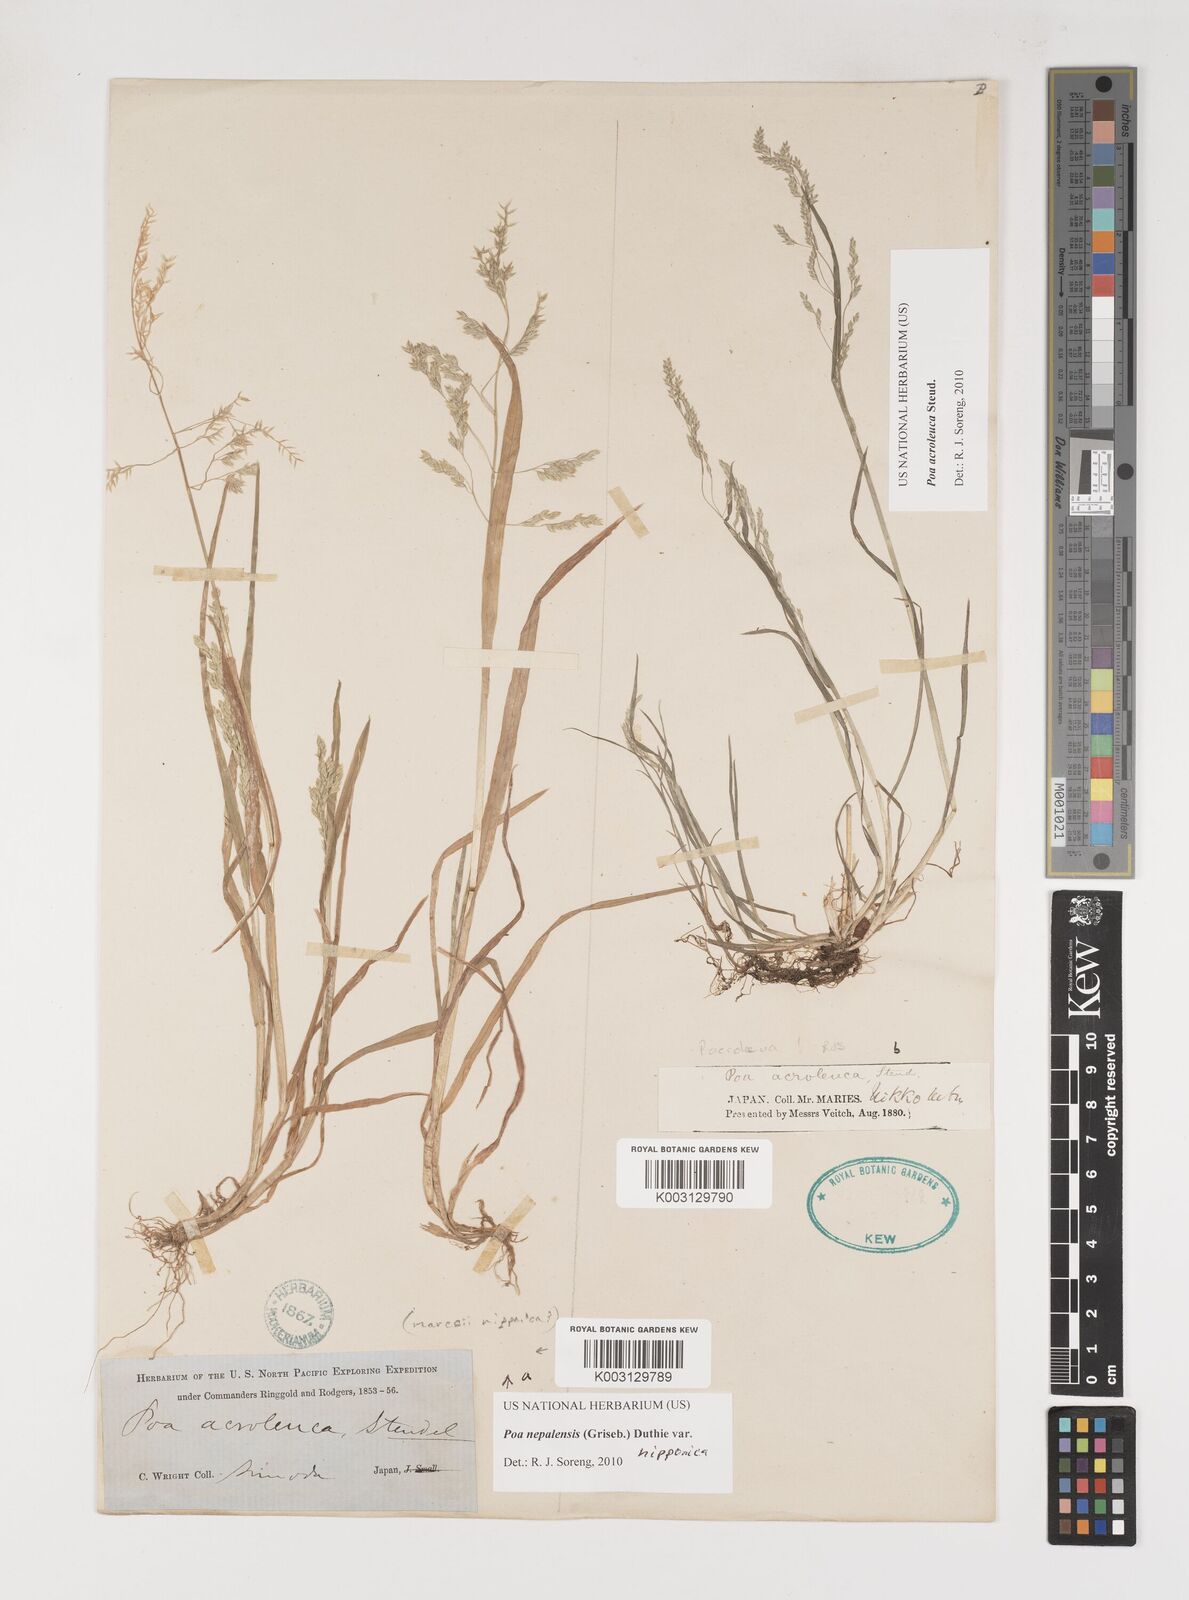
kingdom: Plantae
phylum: Tracheophyta
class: Liliopsida
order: Poales
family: Poaceae
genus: Poa
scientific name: Poa nepalensis
